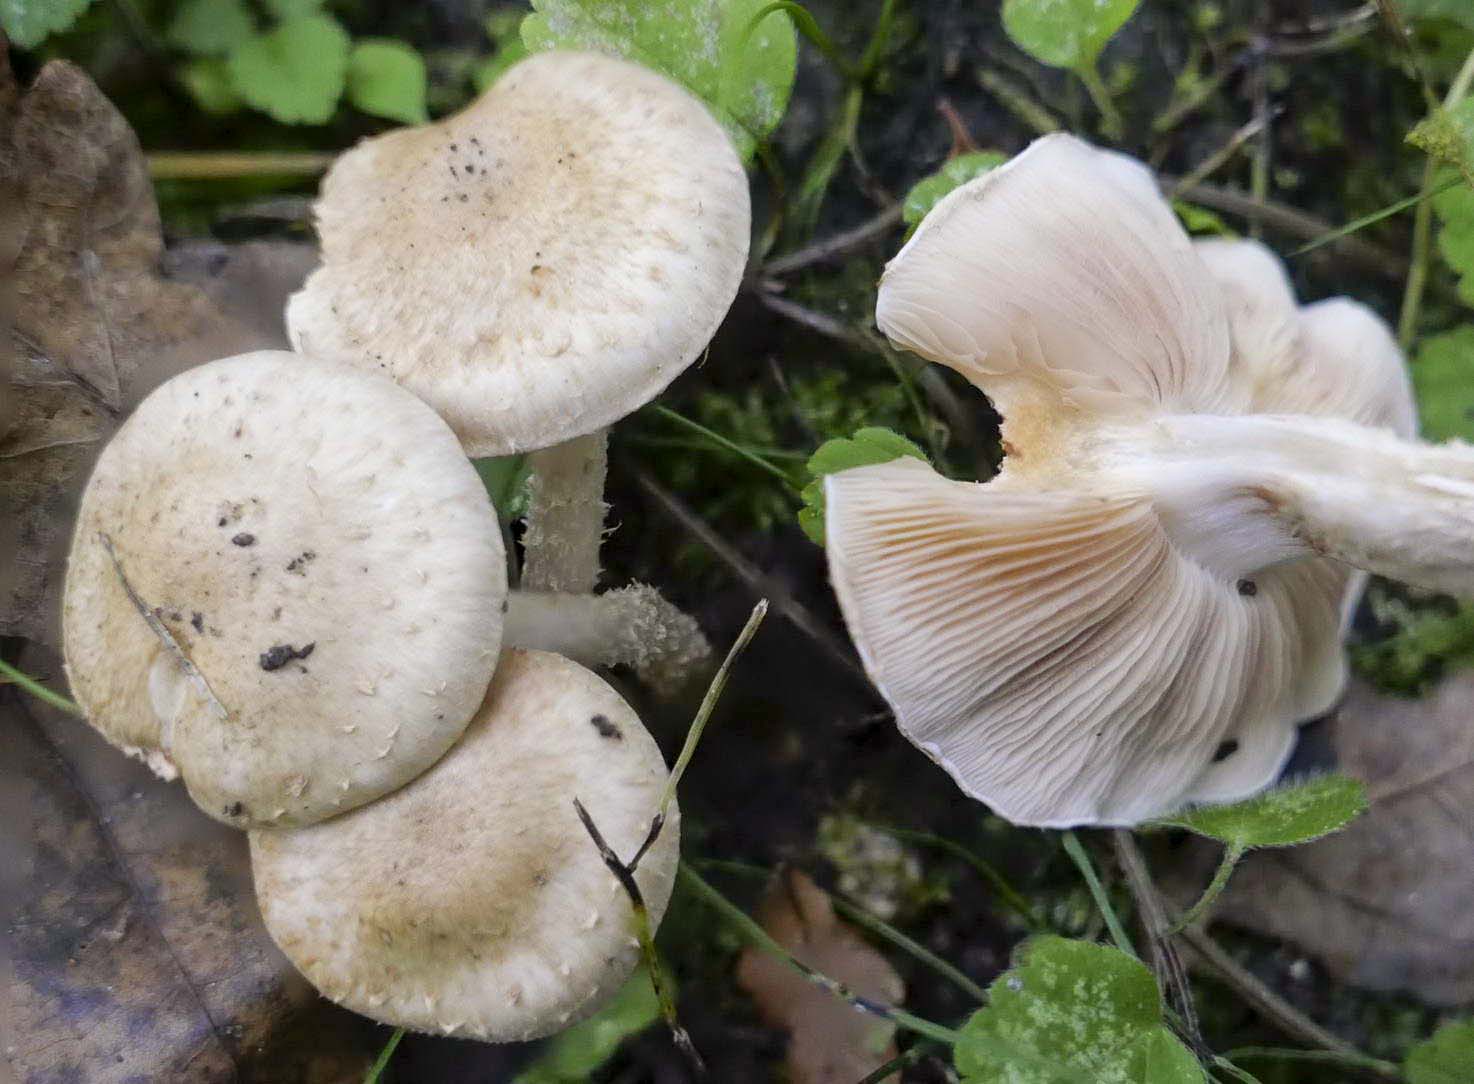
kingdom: Fungi
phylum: Basidiomycota
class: Agaricomycetes
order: Agaricales
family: Strophariaceae
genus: Pholiota
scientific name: Pholiota gummosa
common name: grøngul skælhat
